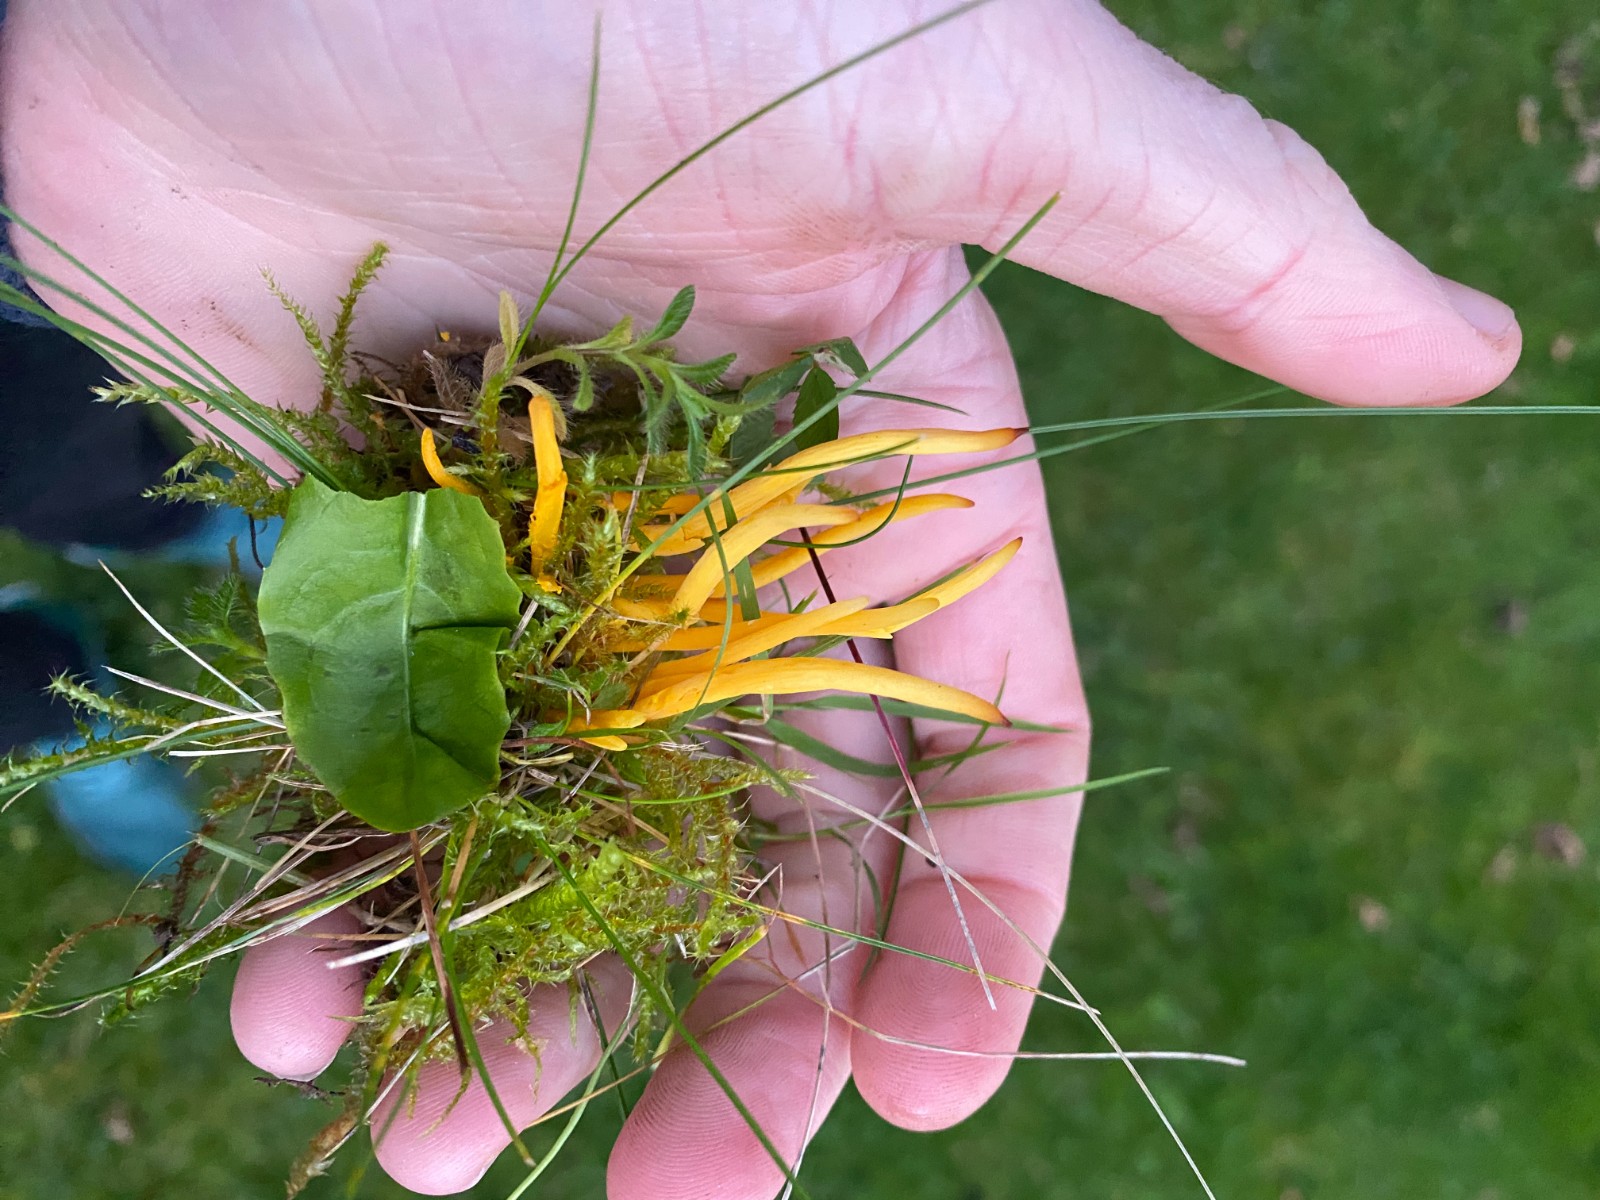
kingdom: Fungi
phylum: Basidiomycota
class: Agaricomycetes
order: Agaricales
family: Clavariaceae
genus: Clavulinopsis
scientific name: Clavulinopsis laeticolor
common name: flamme-køllesvamp
